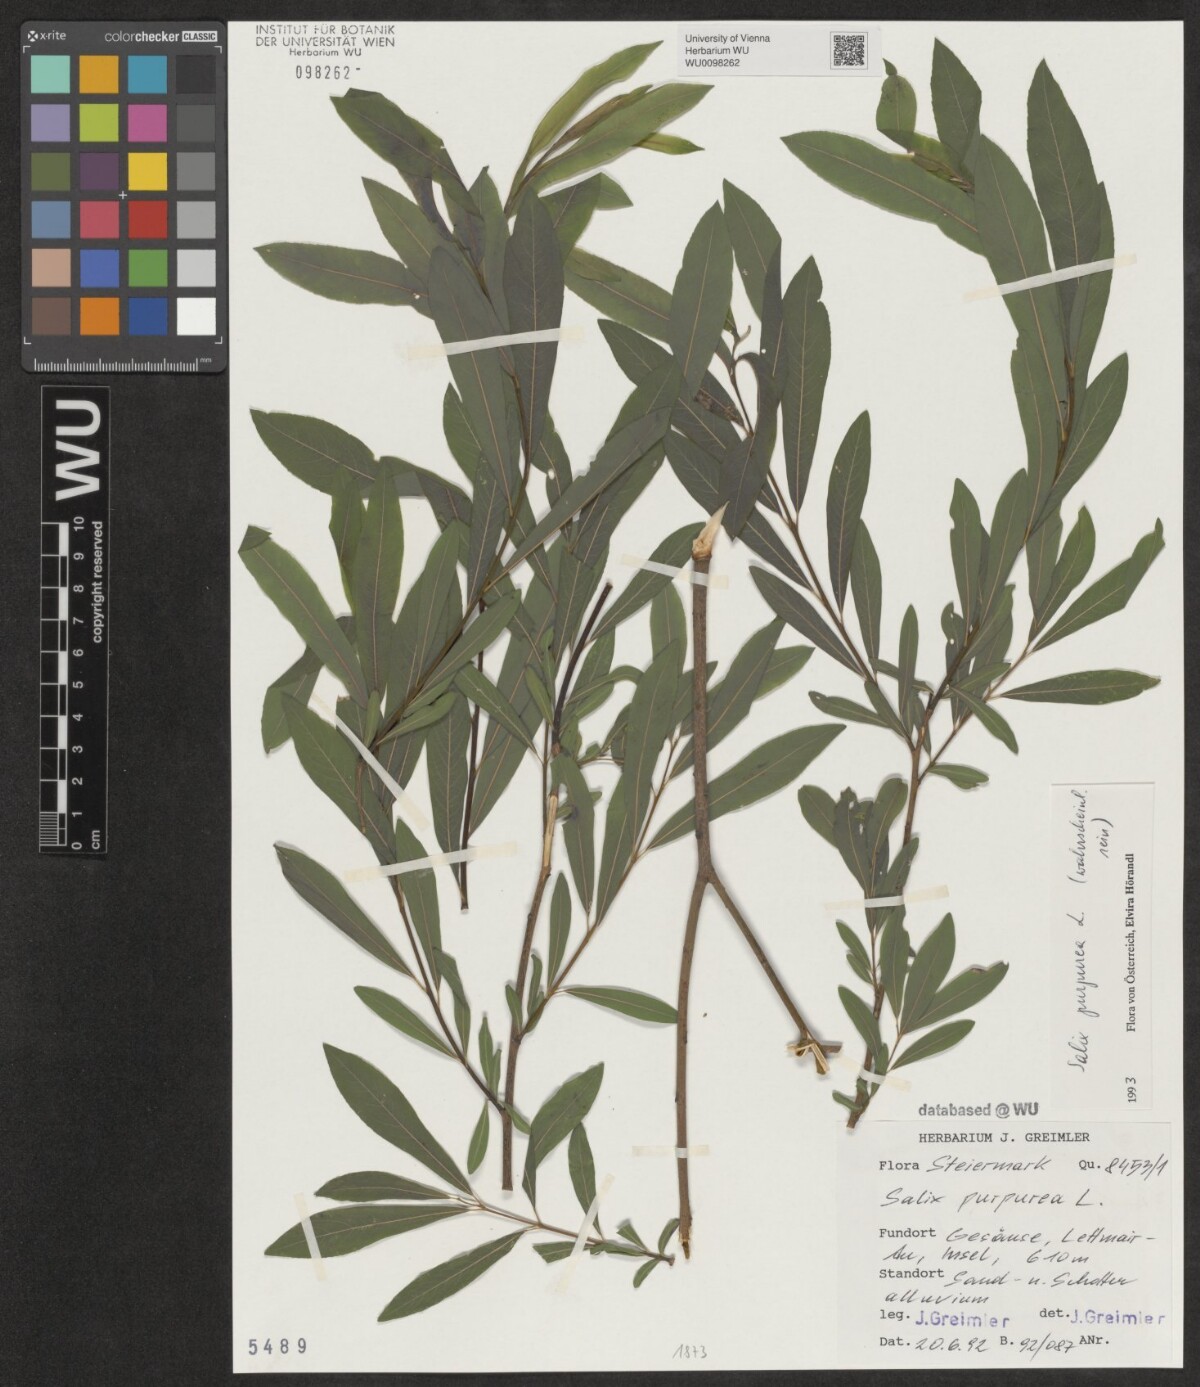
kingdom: Plantae
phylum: Tracheophyta
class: Magnoliopsida
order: Malpighiales
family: Salicaceae
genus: Salix
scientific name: Salix purpurea
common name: Purple willow
